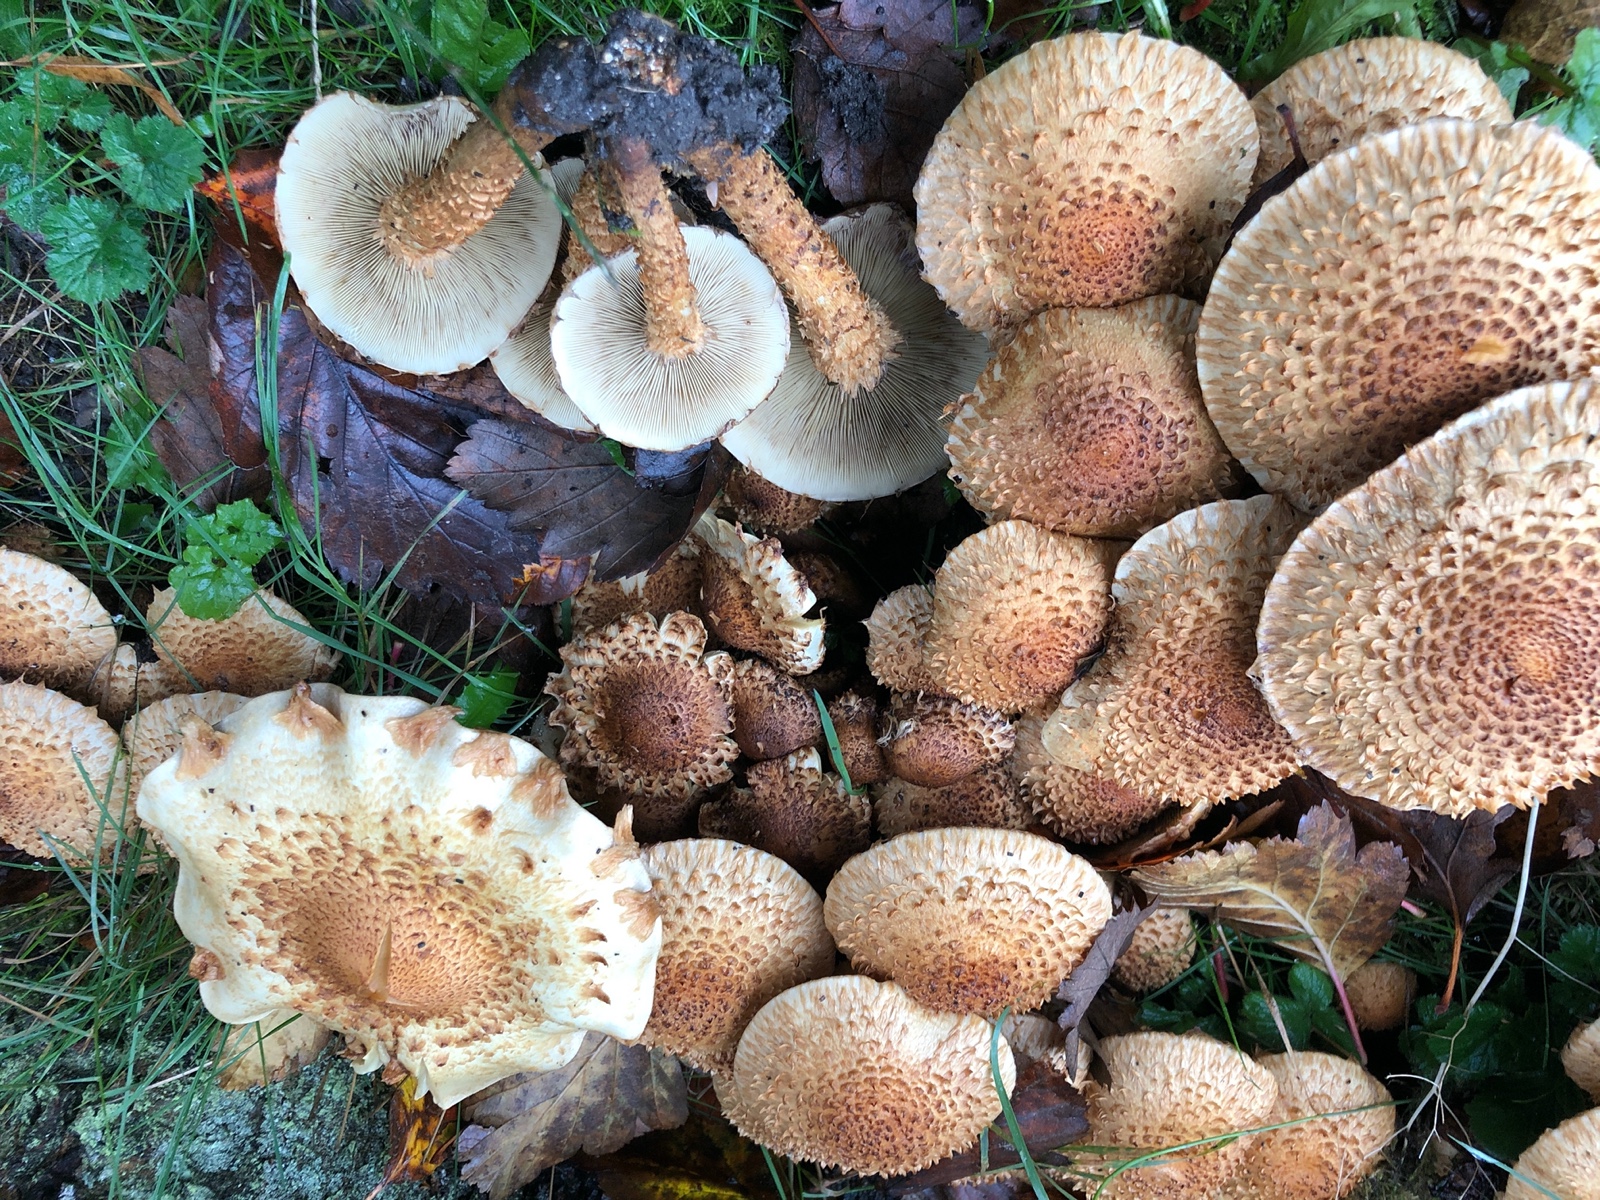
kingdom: Fungi
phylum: Basidiomycota
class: Agaricomycetes
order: Agaricales
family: Strophariaceae
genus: Pholiota
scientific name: Pholiota squarrosa
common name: krumskællet skælhat
